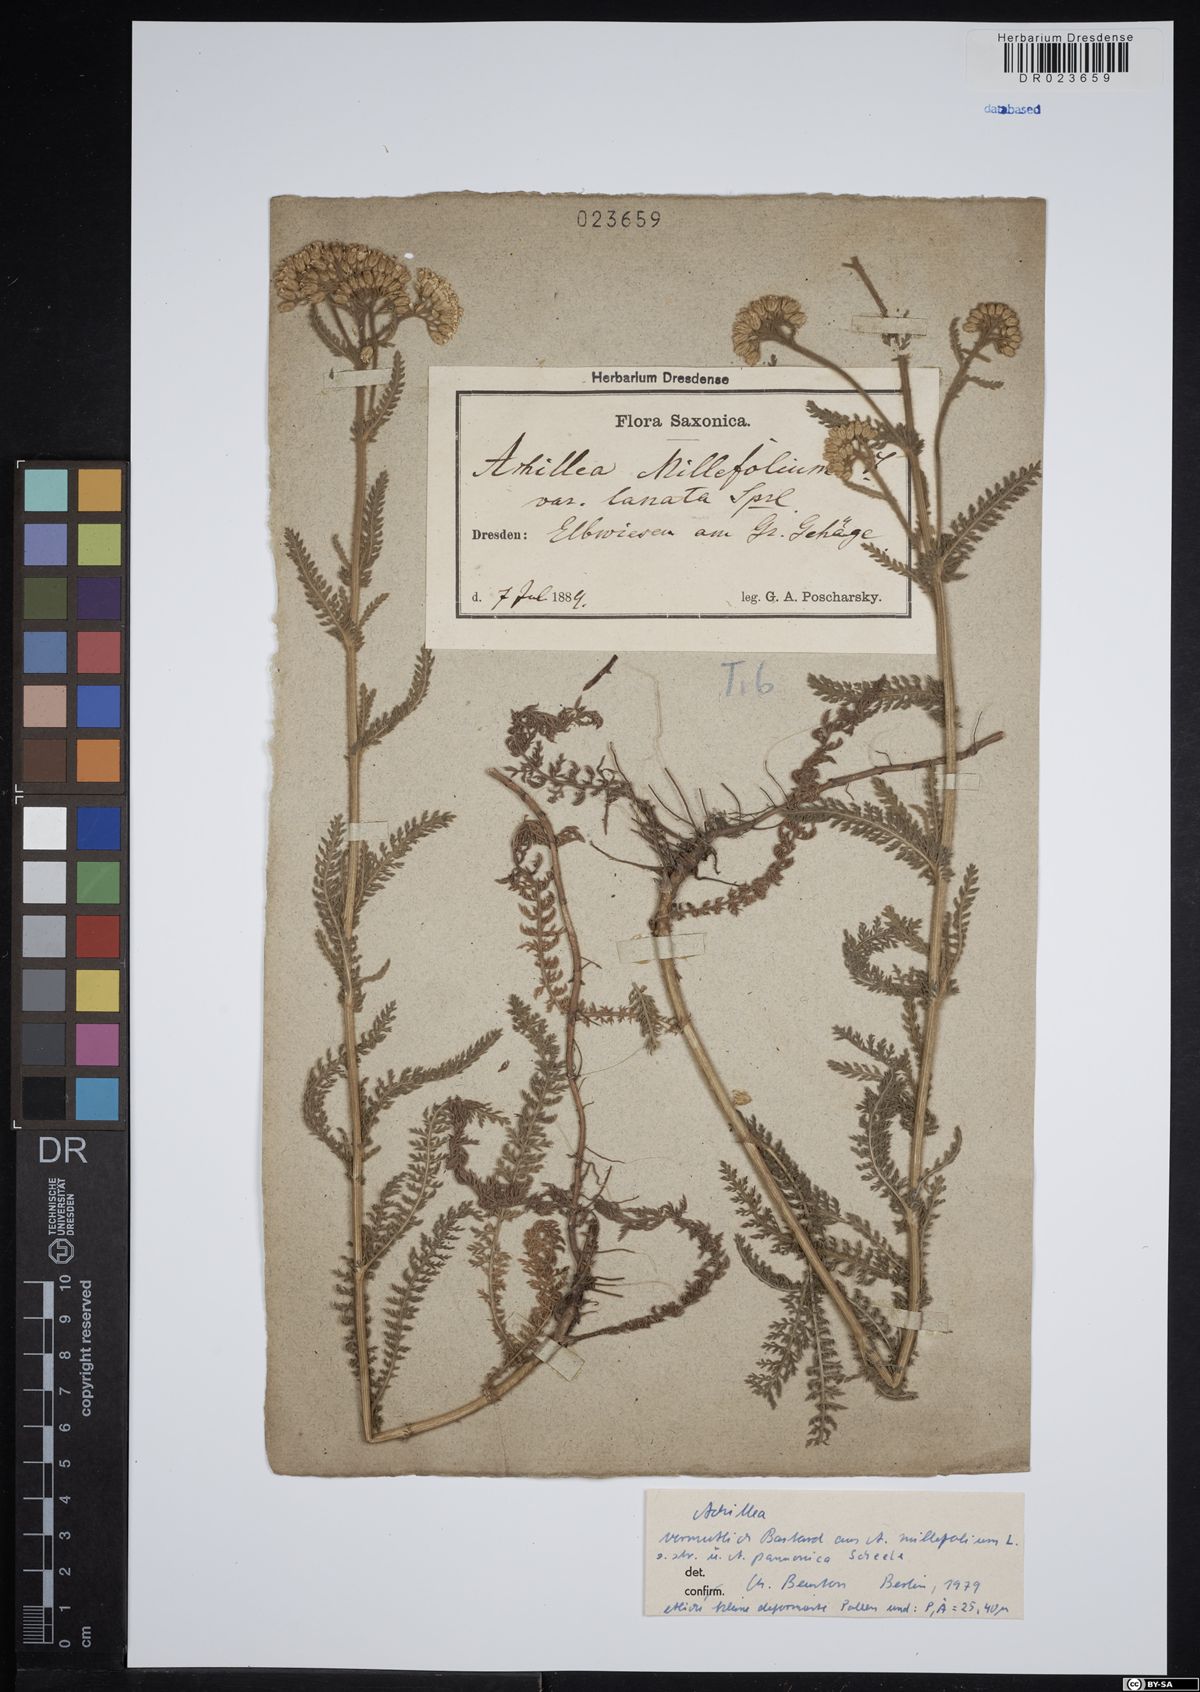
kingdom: Plantae
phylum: Tracheophyta
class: Magnoliopsida
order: Asterales
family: Asteraceae
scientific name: Asteraceae
